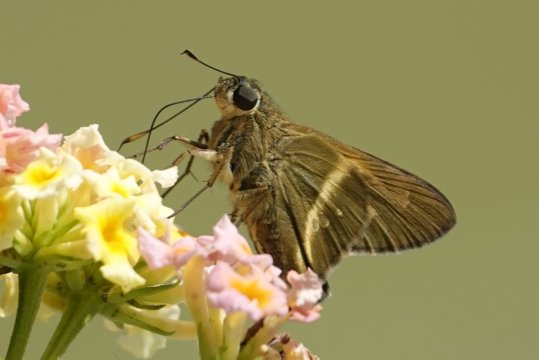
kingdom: Animalia
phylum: Arthropoda
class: Insecta
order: Lepidoptera
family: Hesperiidae
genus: Niconiades
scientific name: Niconiades nikko
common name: Nikko Skipper
